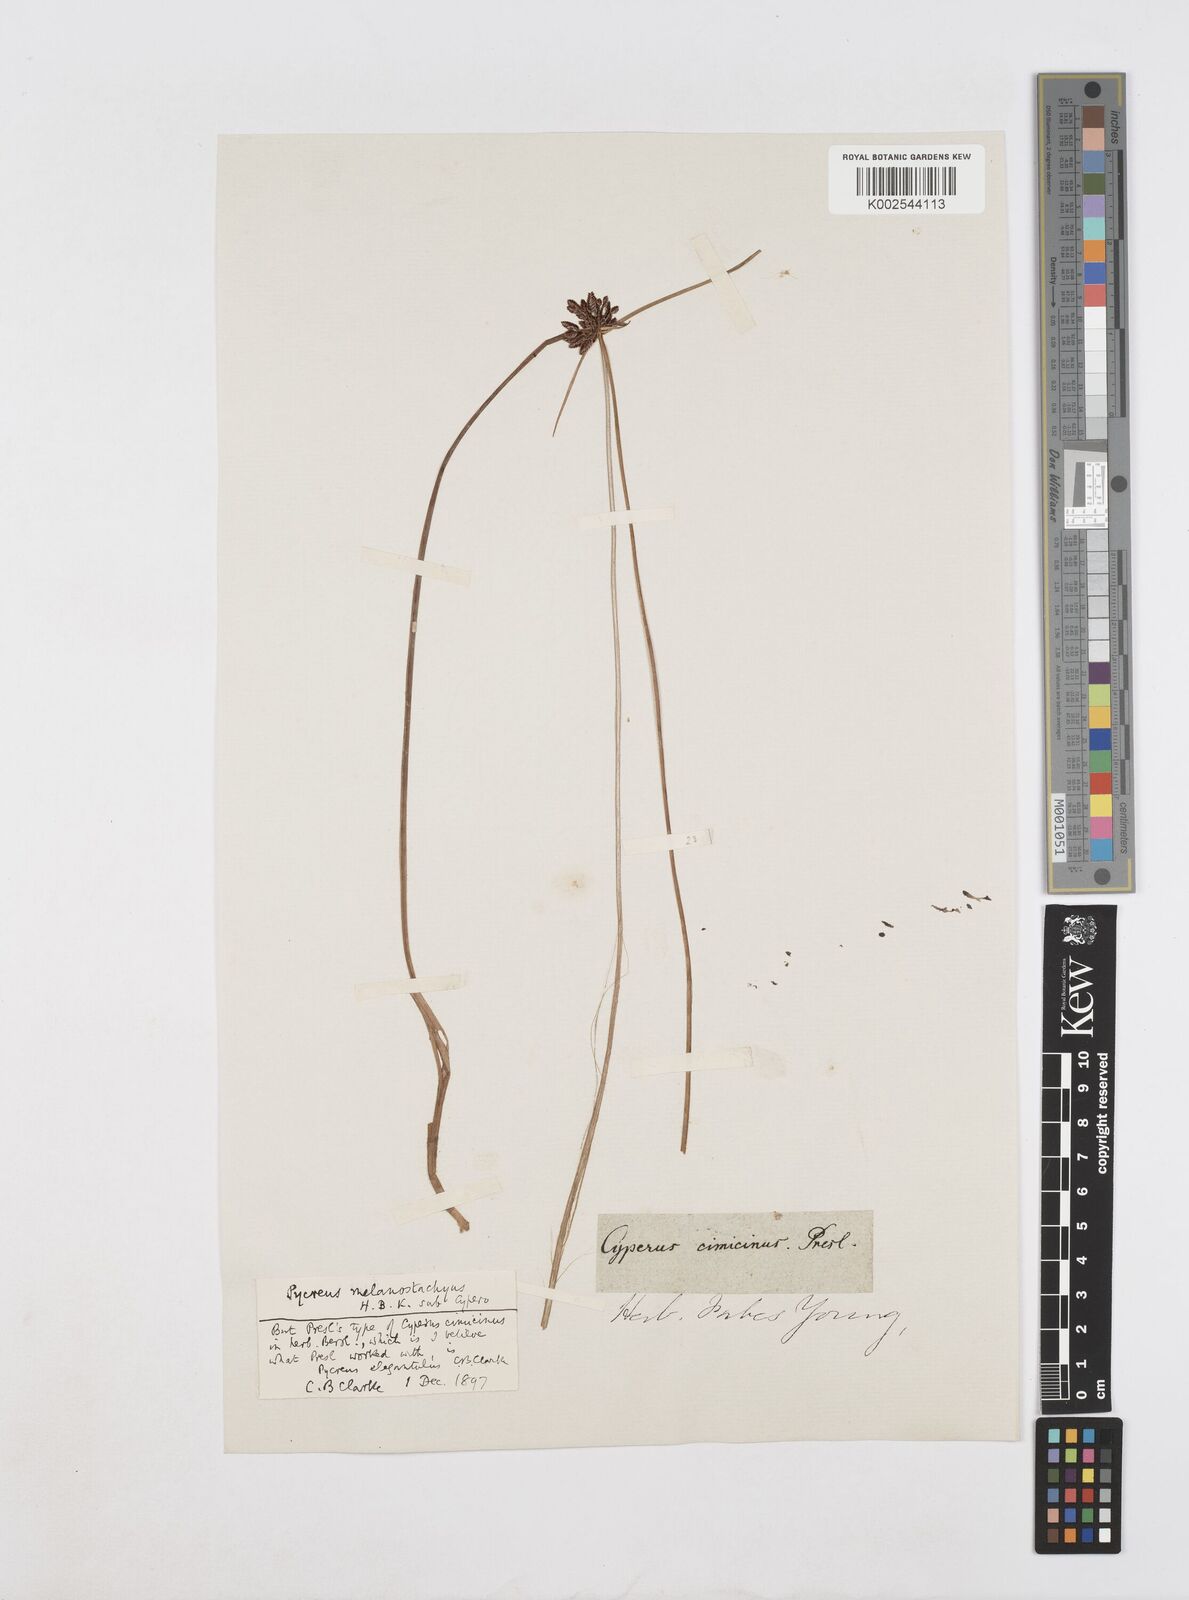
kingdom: Plantae
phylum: Tracheophyta
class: Liliopsida
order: Poales
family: Cyperaceae
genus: Cyperus
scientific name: Cyperus melanostachyus
